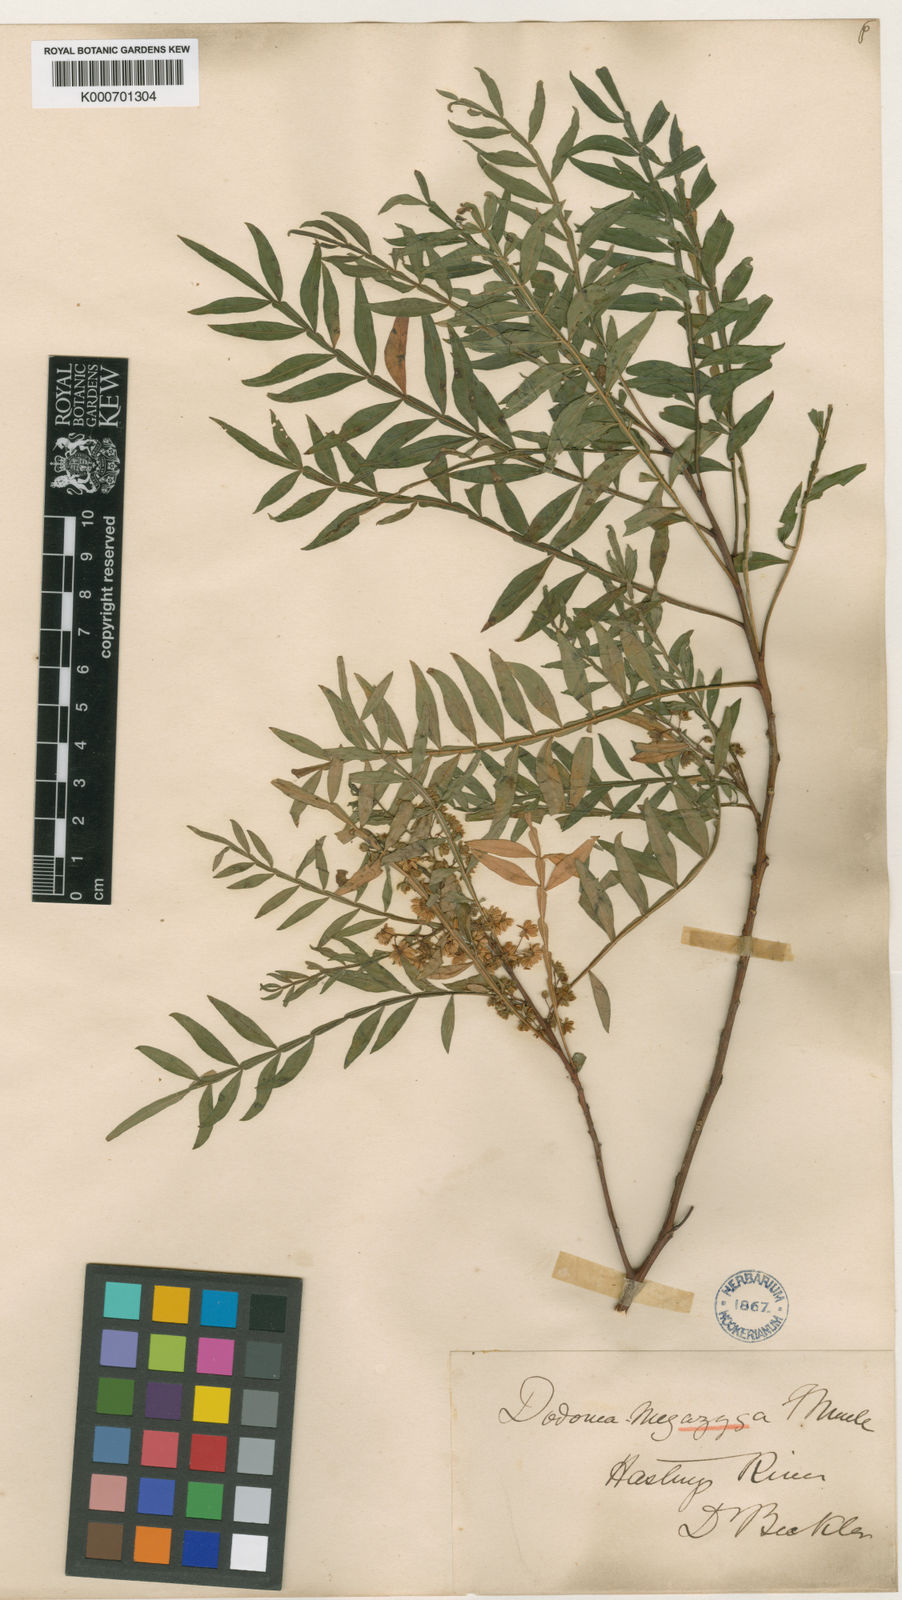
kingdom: Plantae
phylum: Tracheophyta
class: Magnoliopsida
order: Sapindales
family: Sapindaceae
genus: Dodonaea
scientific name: Dodonaea megazyga
